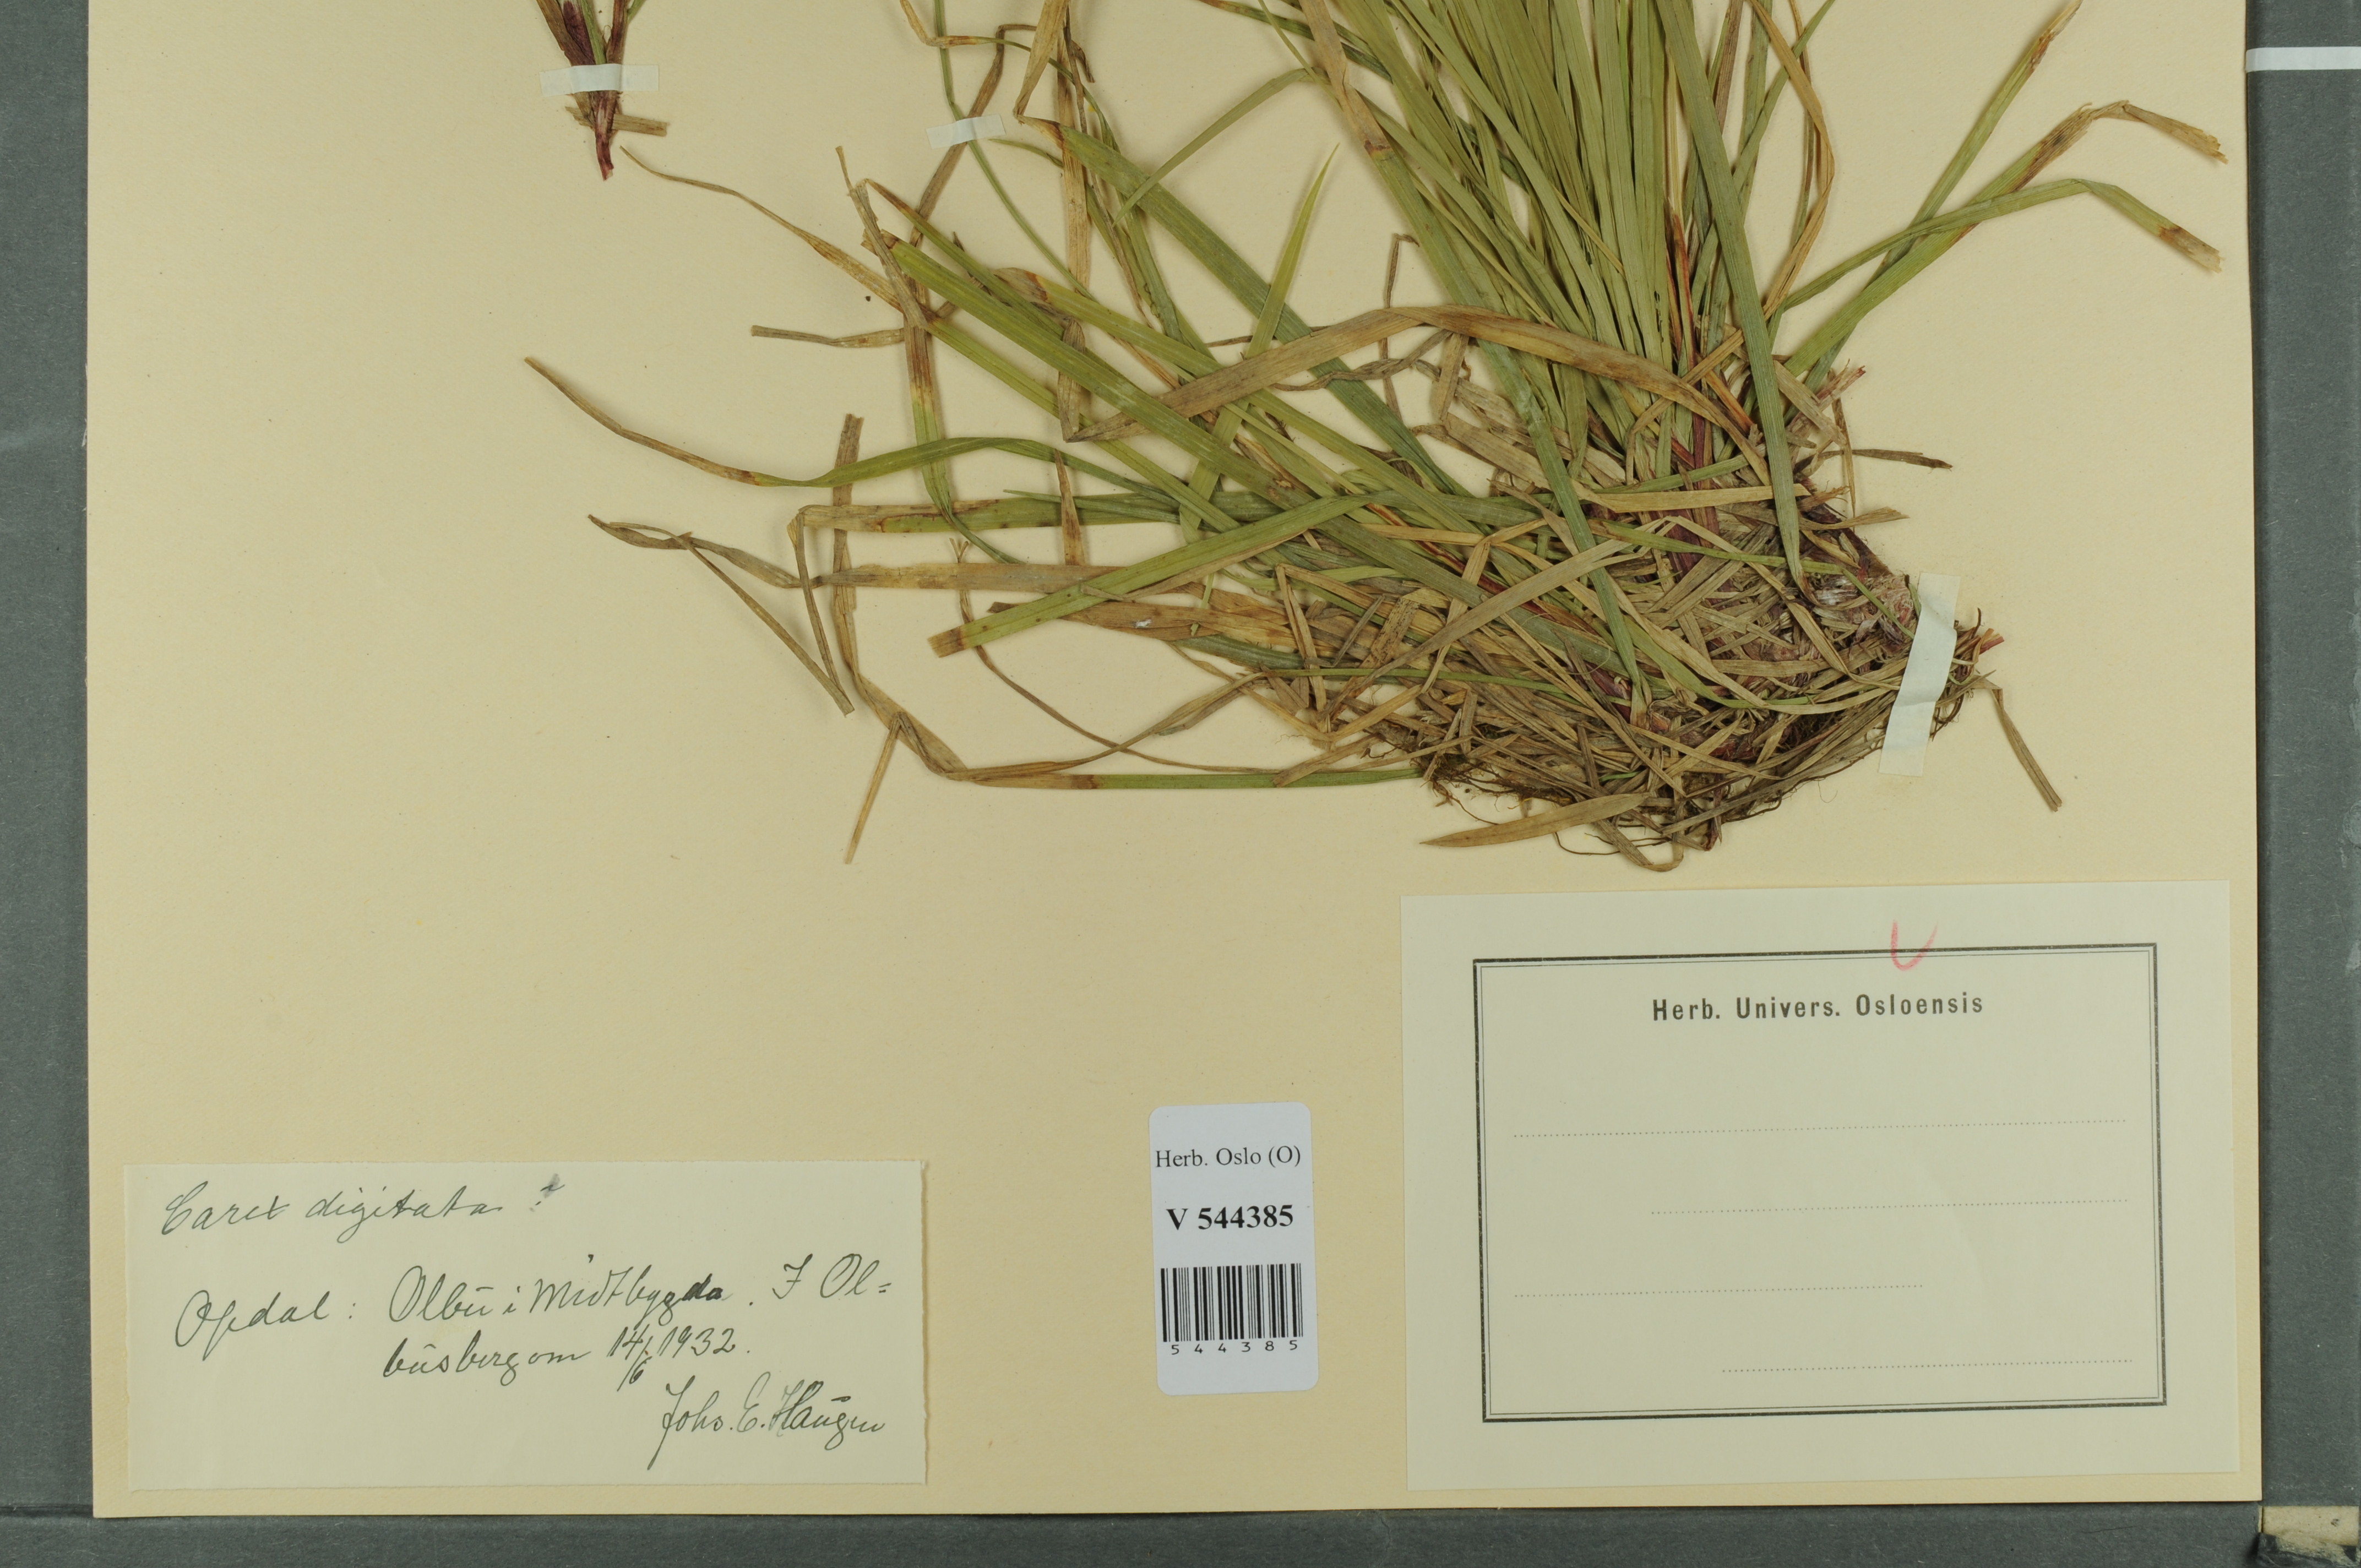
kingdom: Plantae
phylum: Tracheophyta
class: Liliopsida
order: Poales
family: Cyperaceae
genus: Carex
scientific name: Carex digitata
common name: Fingered sedge
